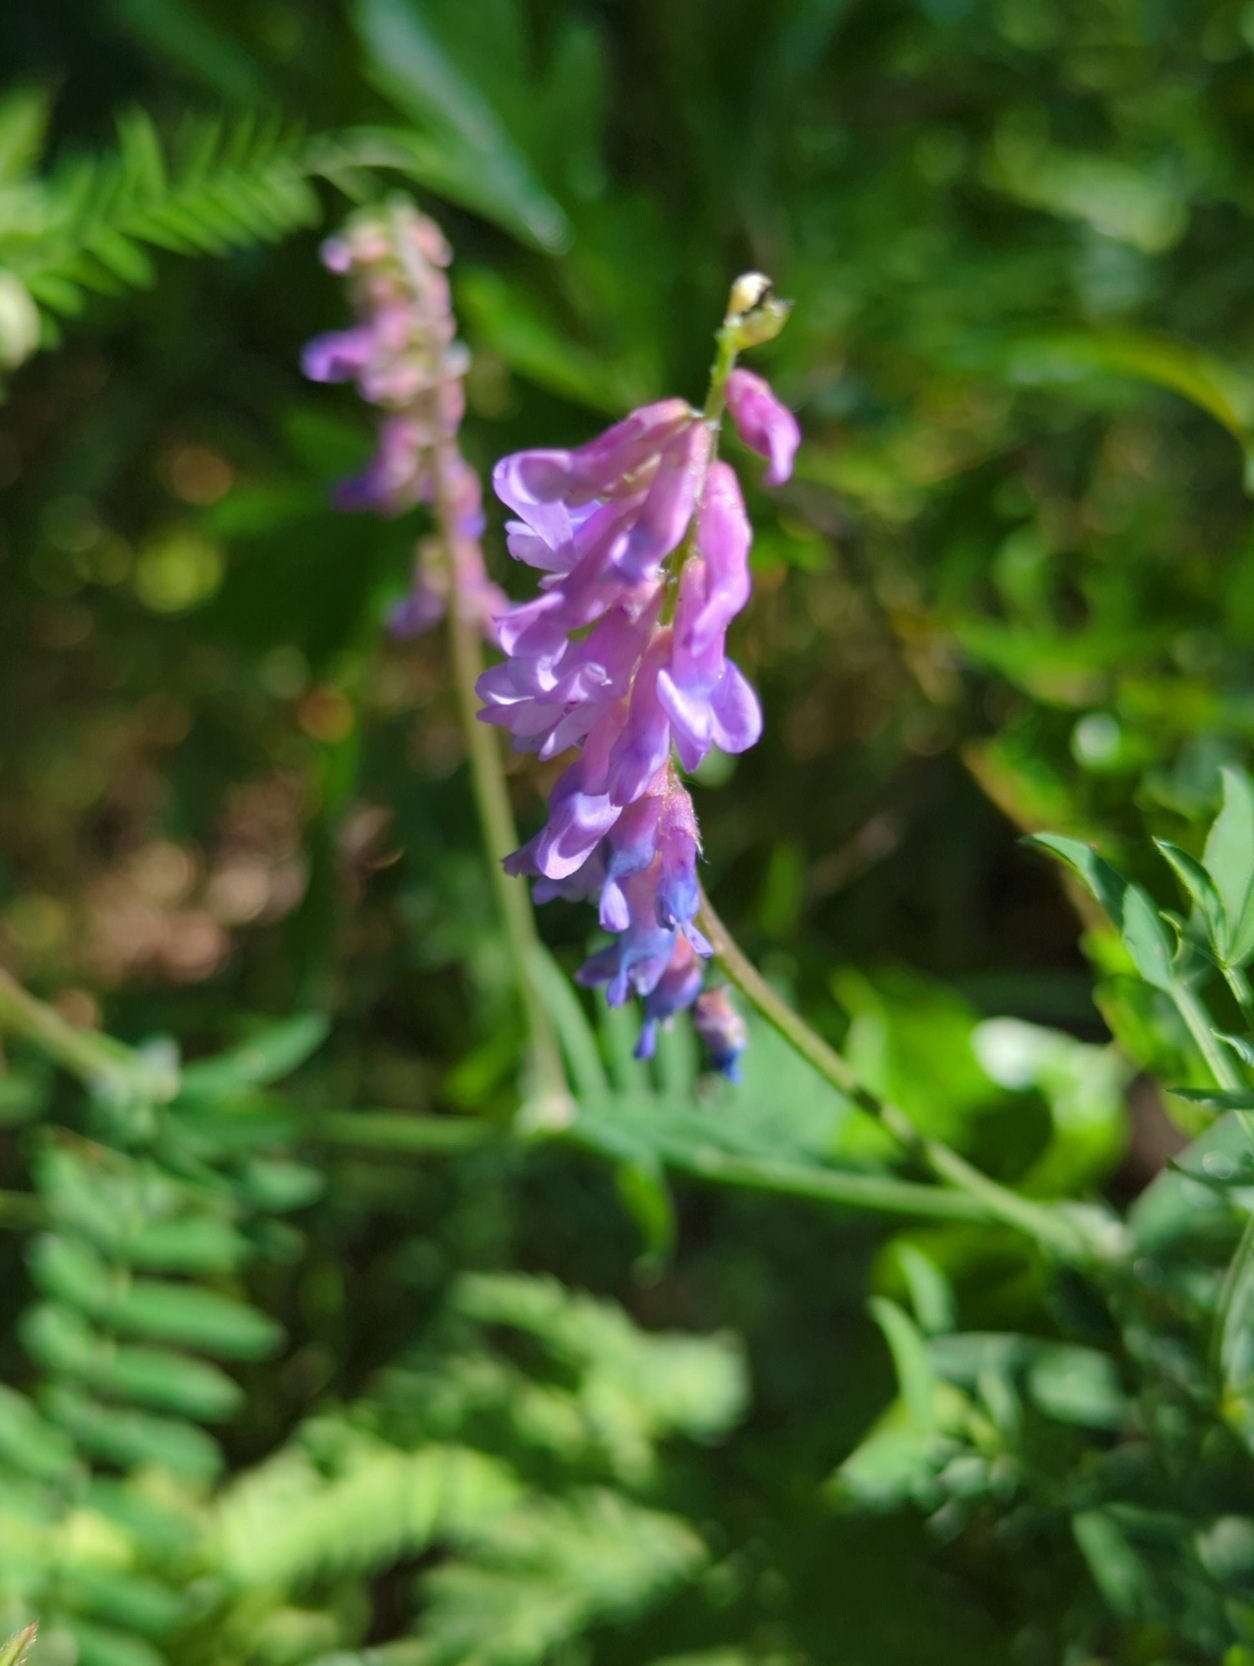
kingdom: Plantae
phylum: Tracheophyta
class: Magnoliopsida
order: Fabales
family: Fabaceae
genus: Vicia
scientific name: Vicia cracca
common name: Muse-vikke
